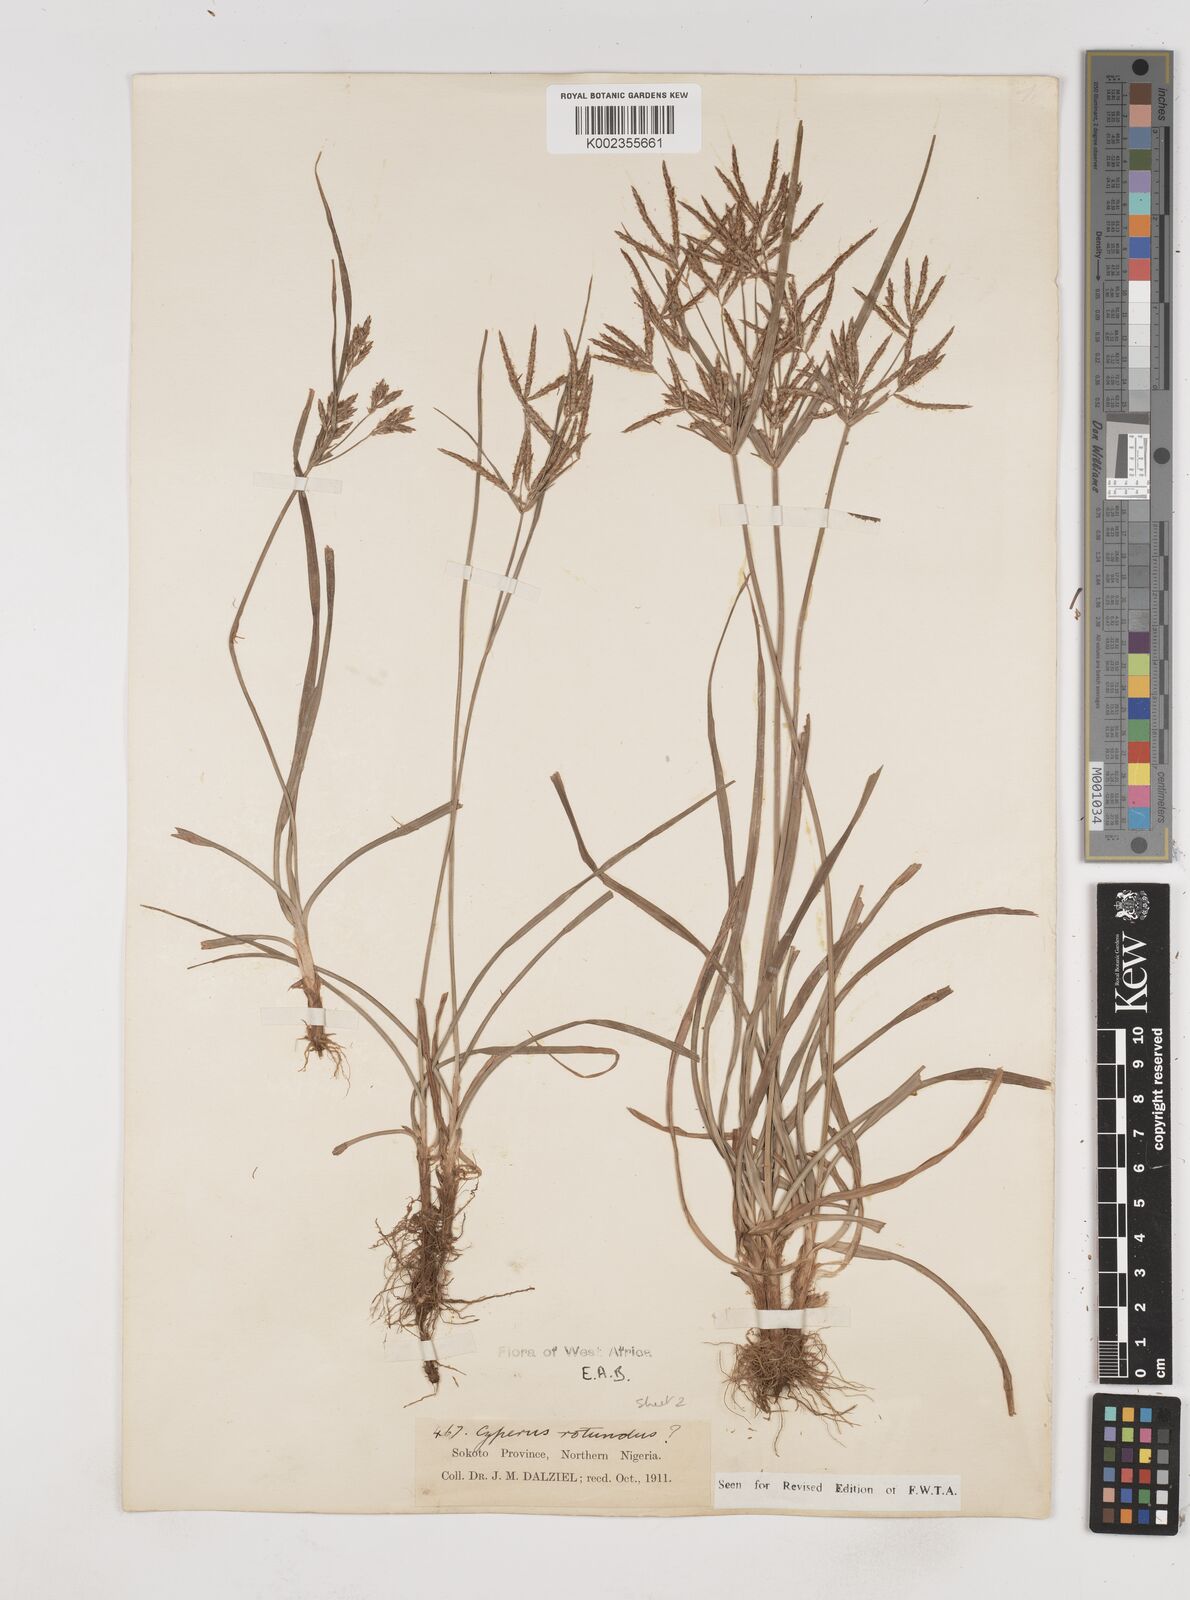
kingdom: Plantae
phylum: Tracheophyta
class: Liliopsida
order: Poales
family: Cyperaceae
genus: Cyperus
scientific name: Cyperus rotundus
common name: Nutgrass
